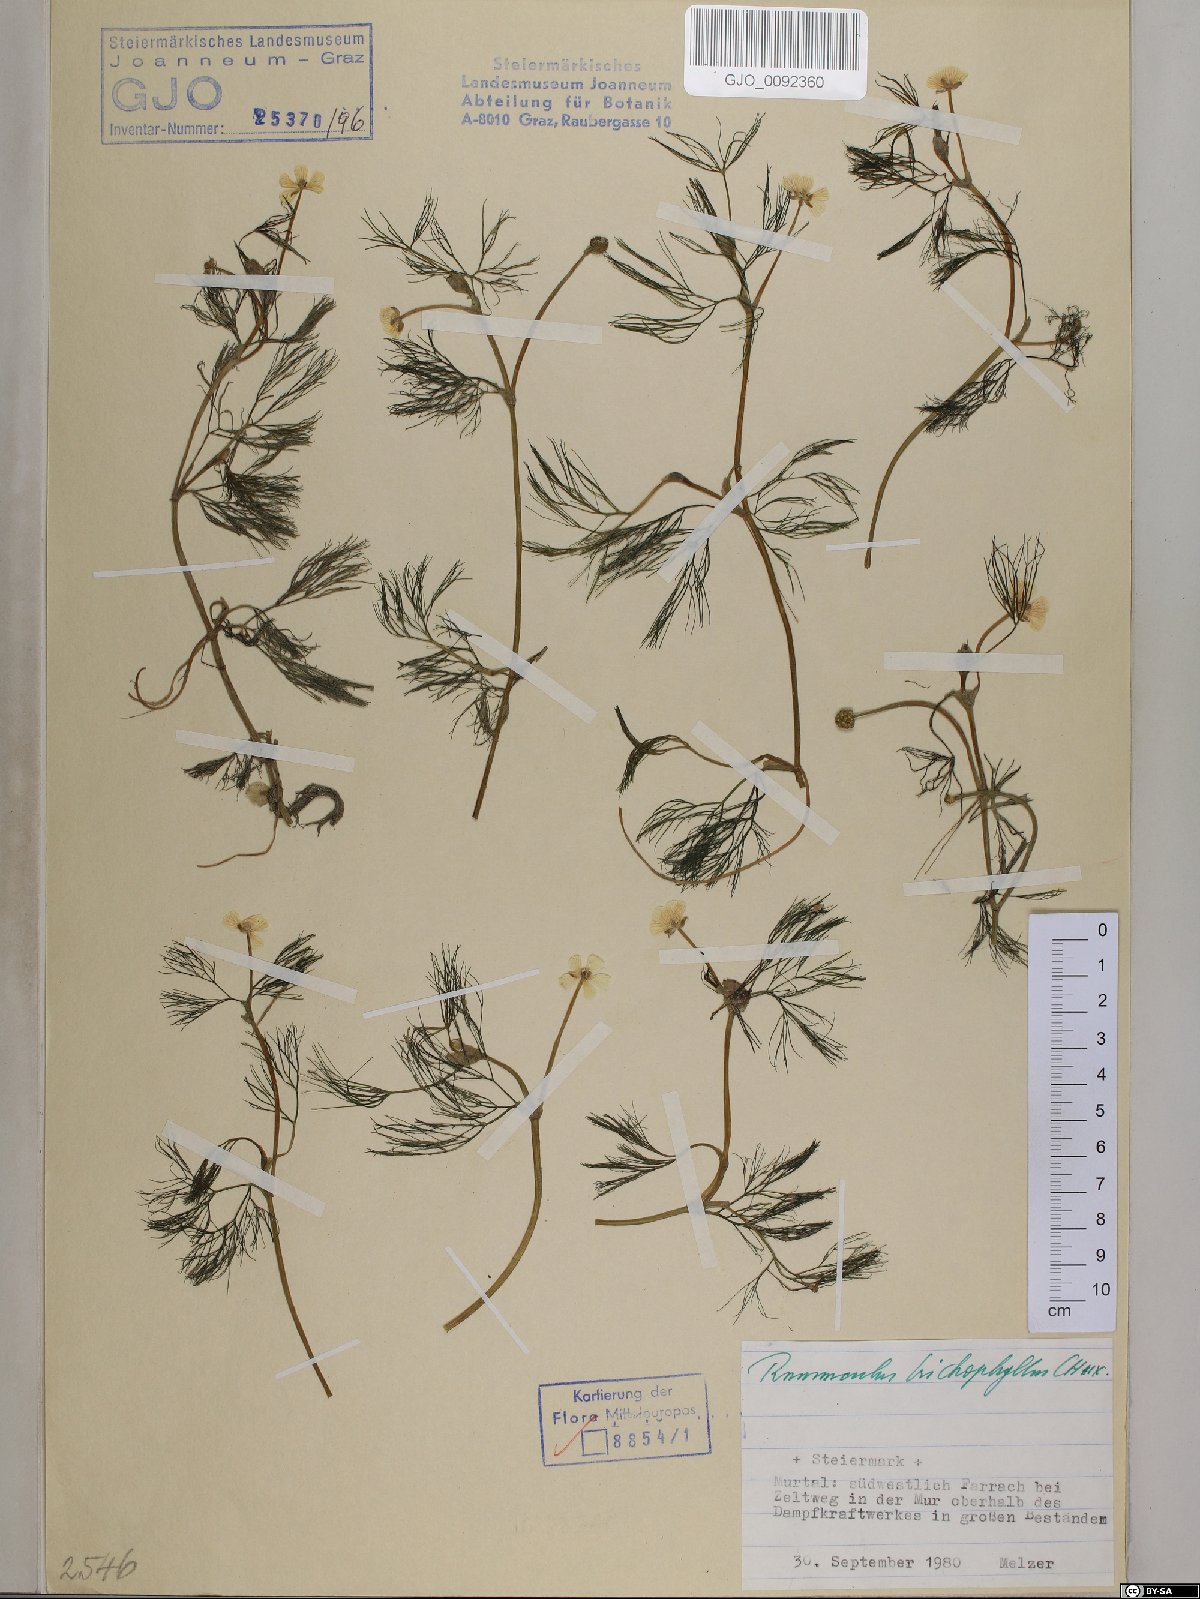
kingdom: Plantae
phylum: Tracheophyta
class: Magnoliopsida
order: Ranunculales
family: Ranunculaceae
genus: Ranunculus
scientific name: Ranunculus trichophyllus
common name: Thread-leaved water-crowfoot
